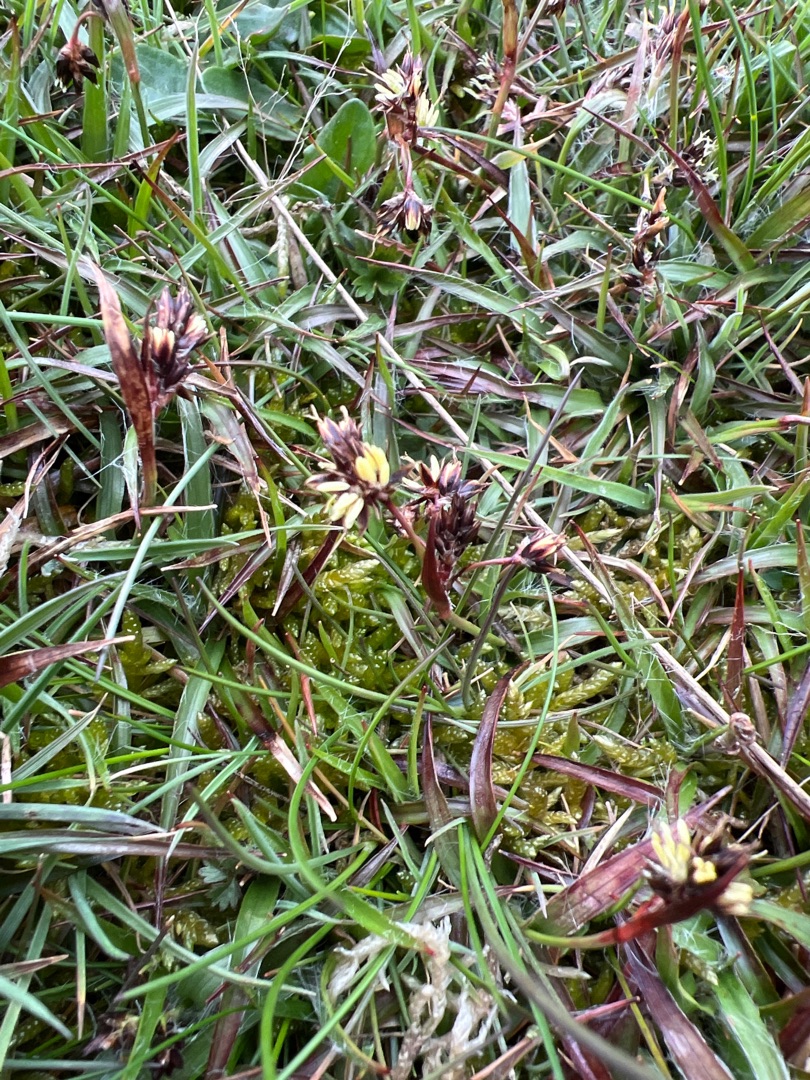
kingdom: Plantae
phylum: Tracheophyta
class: Liliopsida
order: Poales
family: Juncaceae
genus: Luzula
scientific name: Luzula campestris
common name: Mark-frytle
